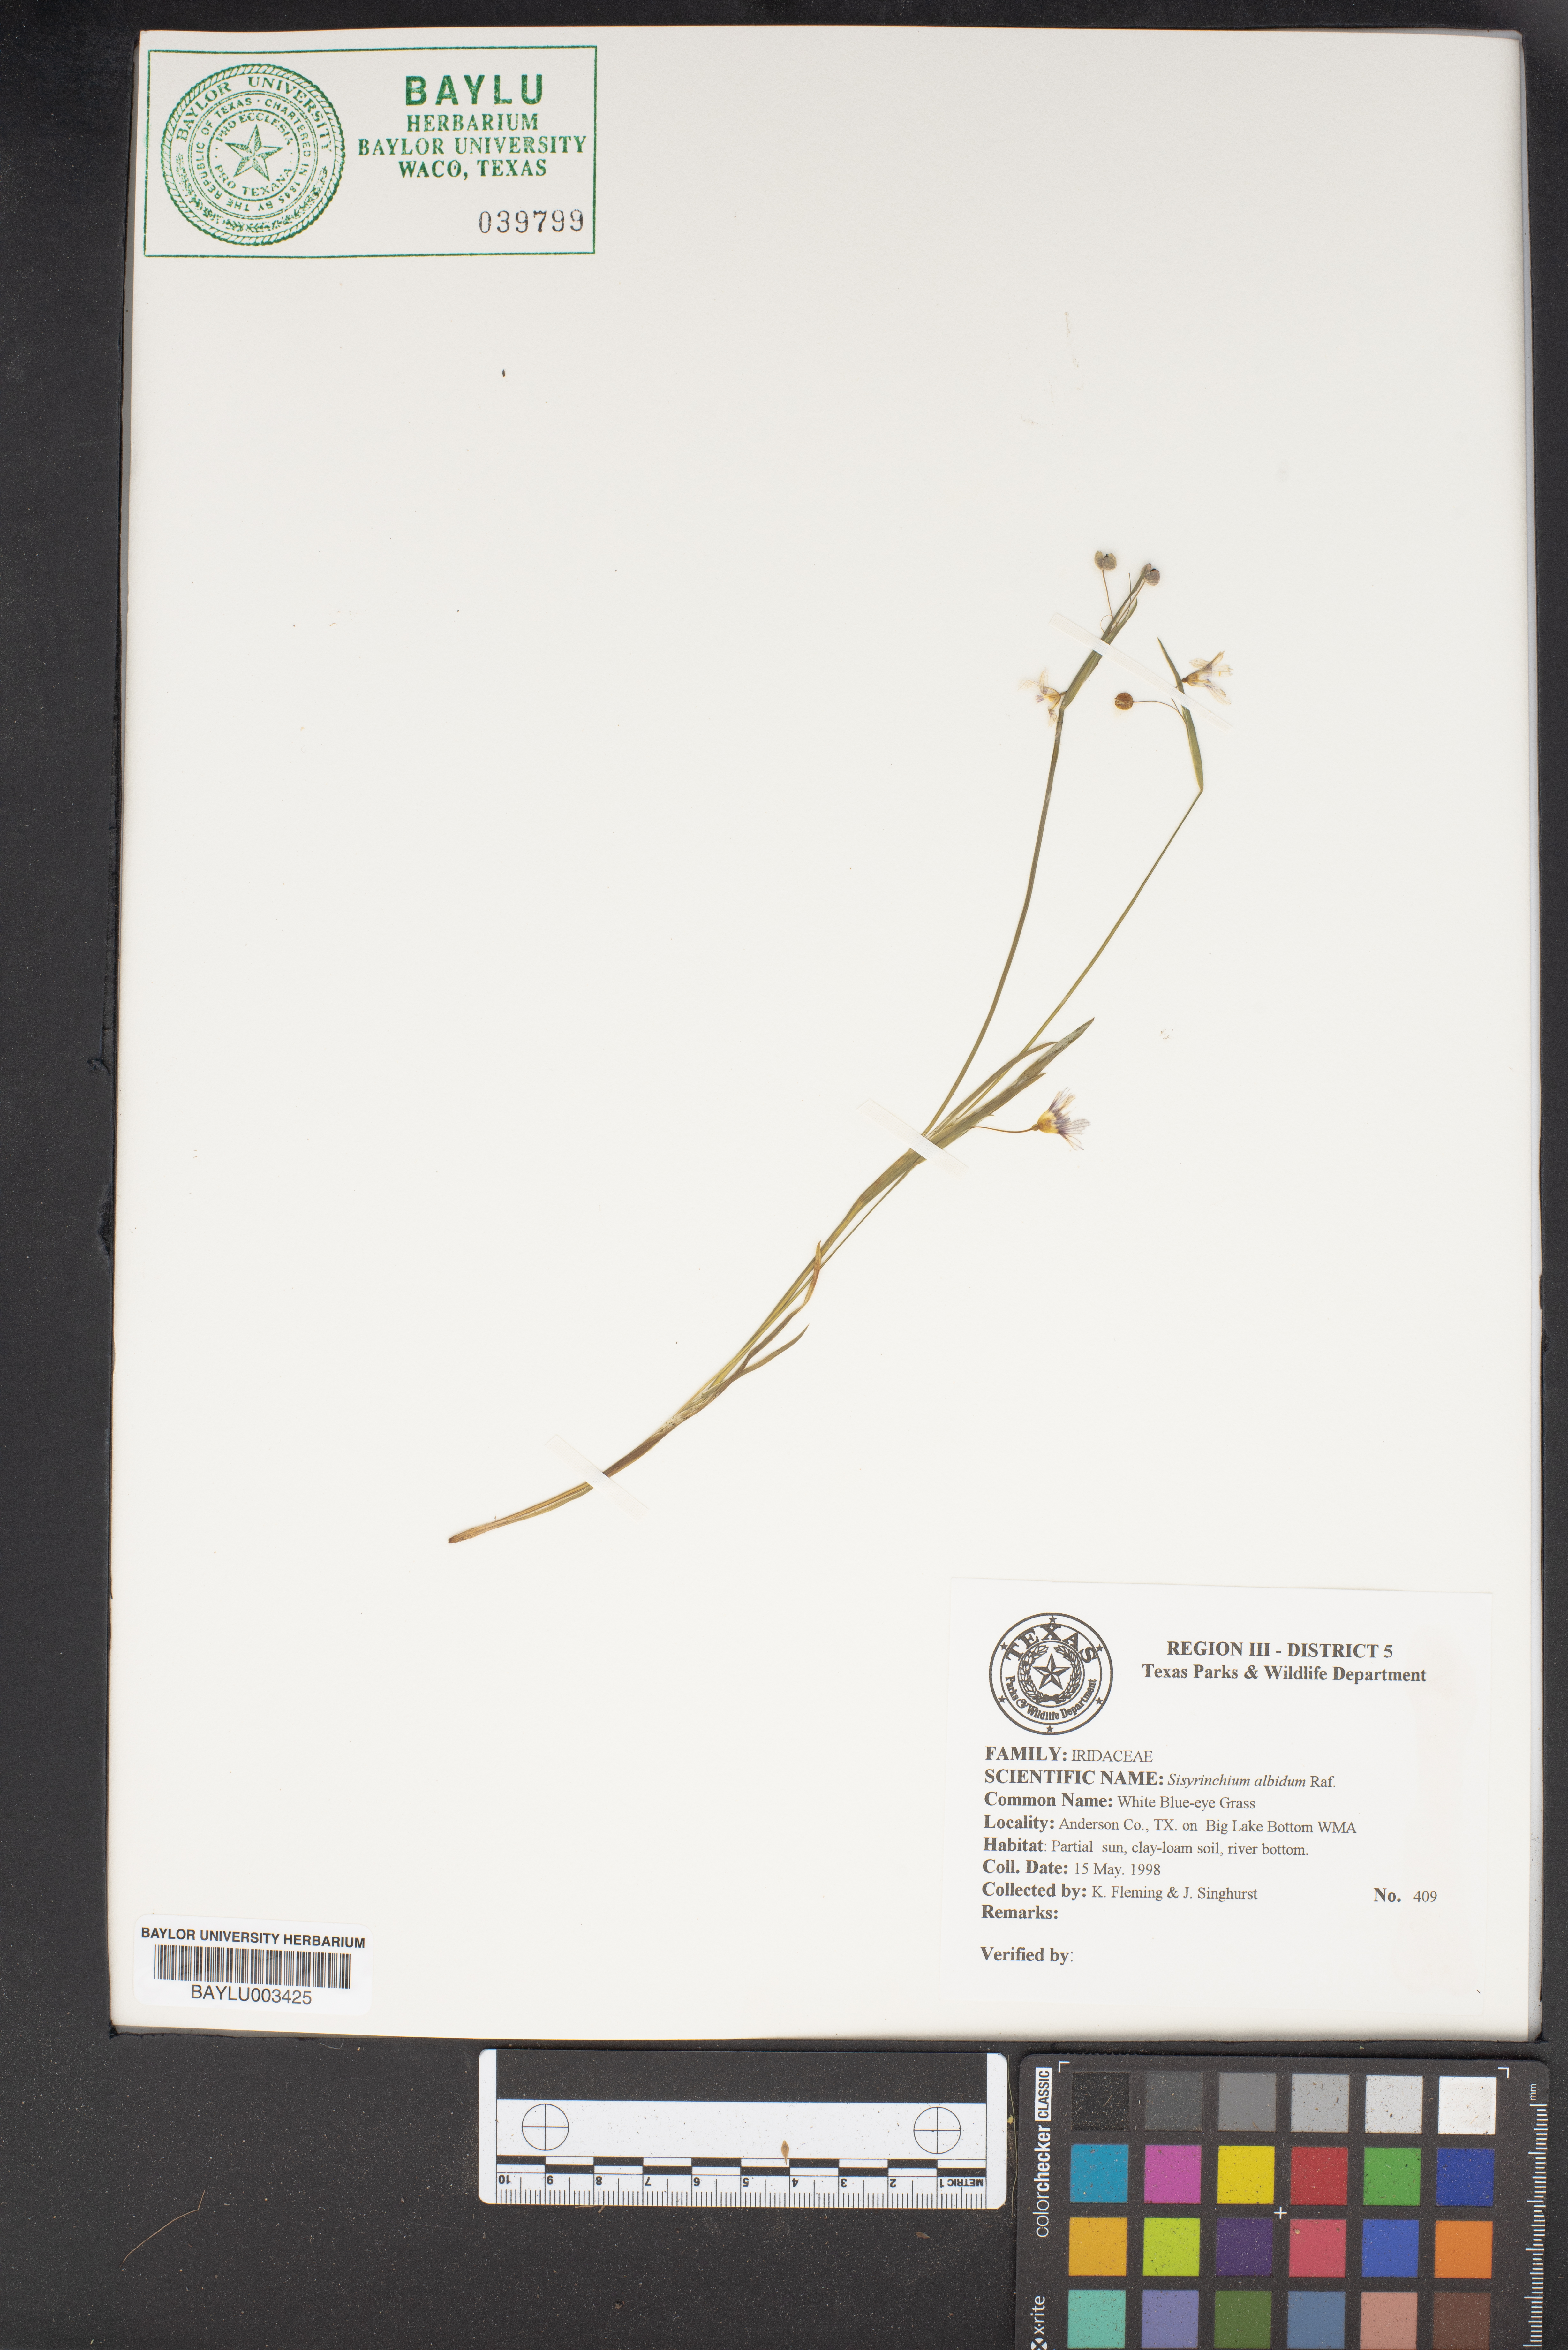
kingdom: Plantae
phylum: Tracheophyta
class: Liliopsida
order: Asparagales
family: Iridaceae
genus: Sisyrinchium
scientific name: Sisyrinchium abietum
